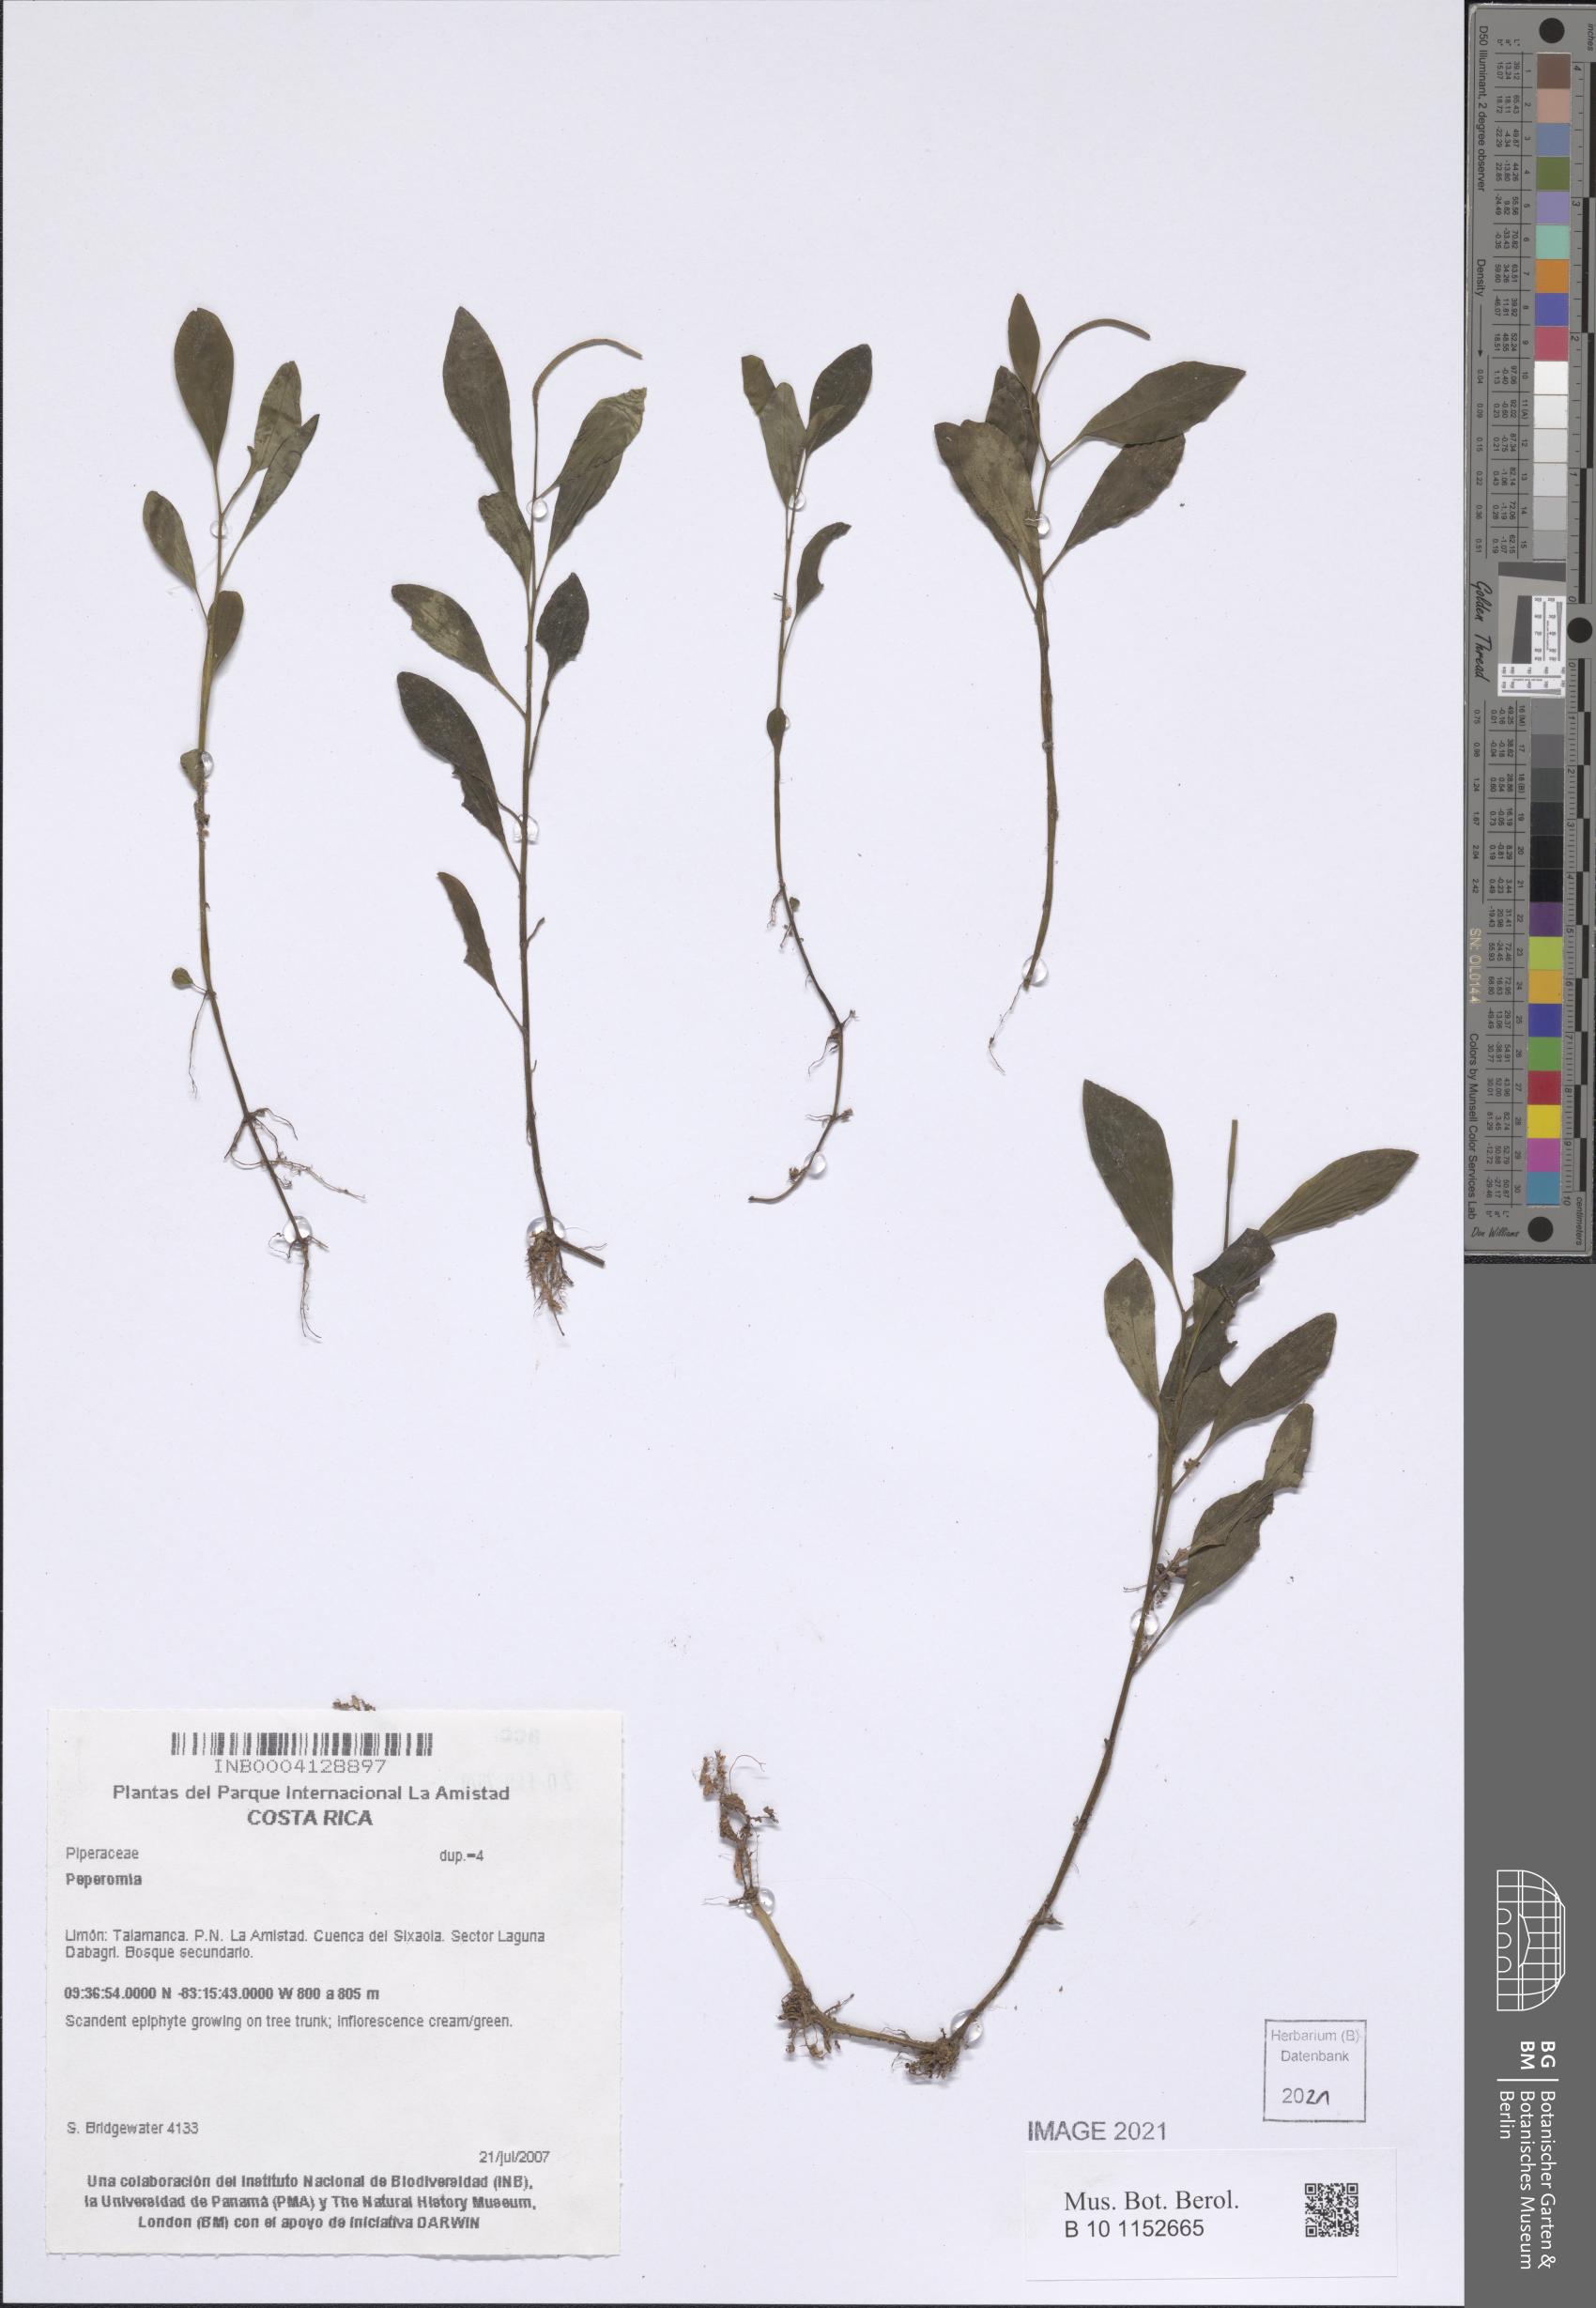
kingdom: Plantae
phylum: Tracheophyta
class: Magnoliopsida
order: Piperales
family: Piperaceae
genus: Peperomia
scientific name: Peperomia
